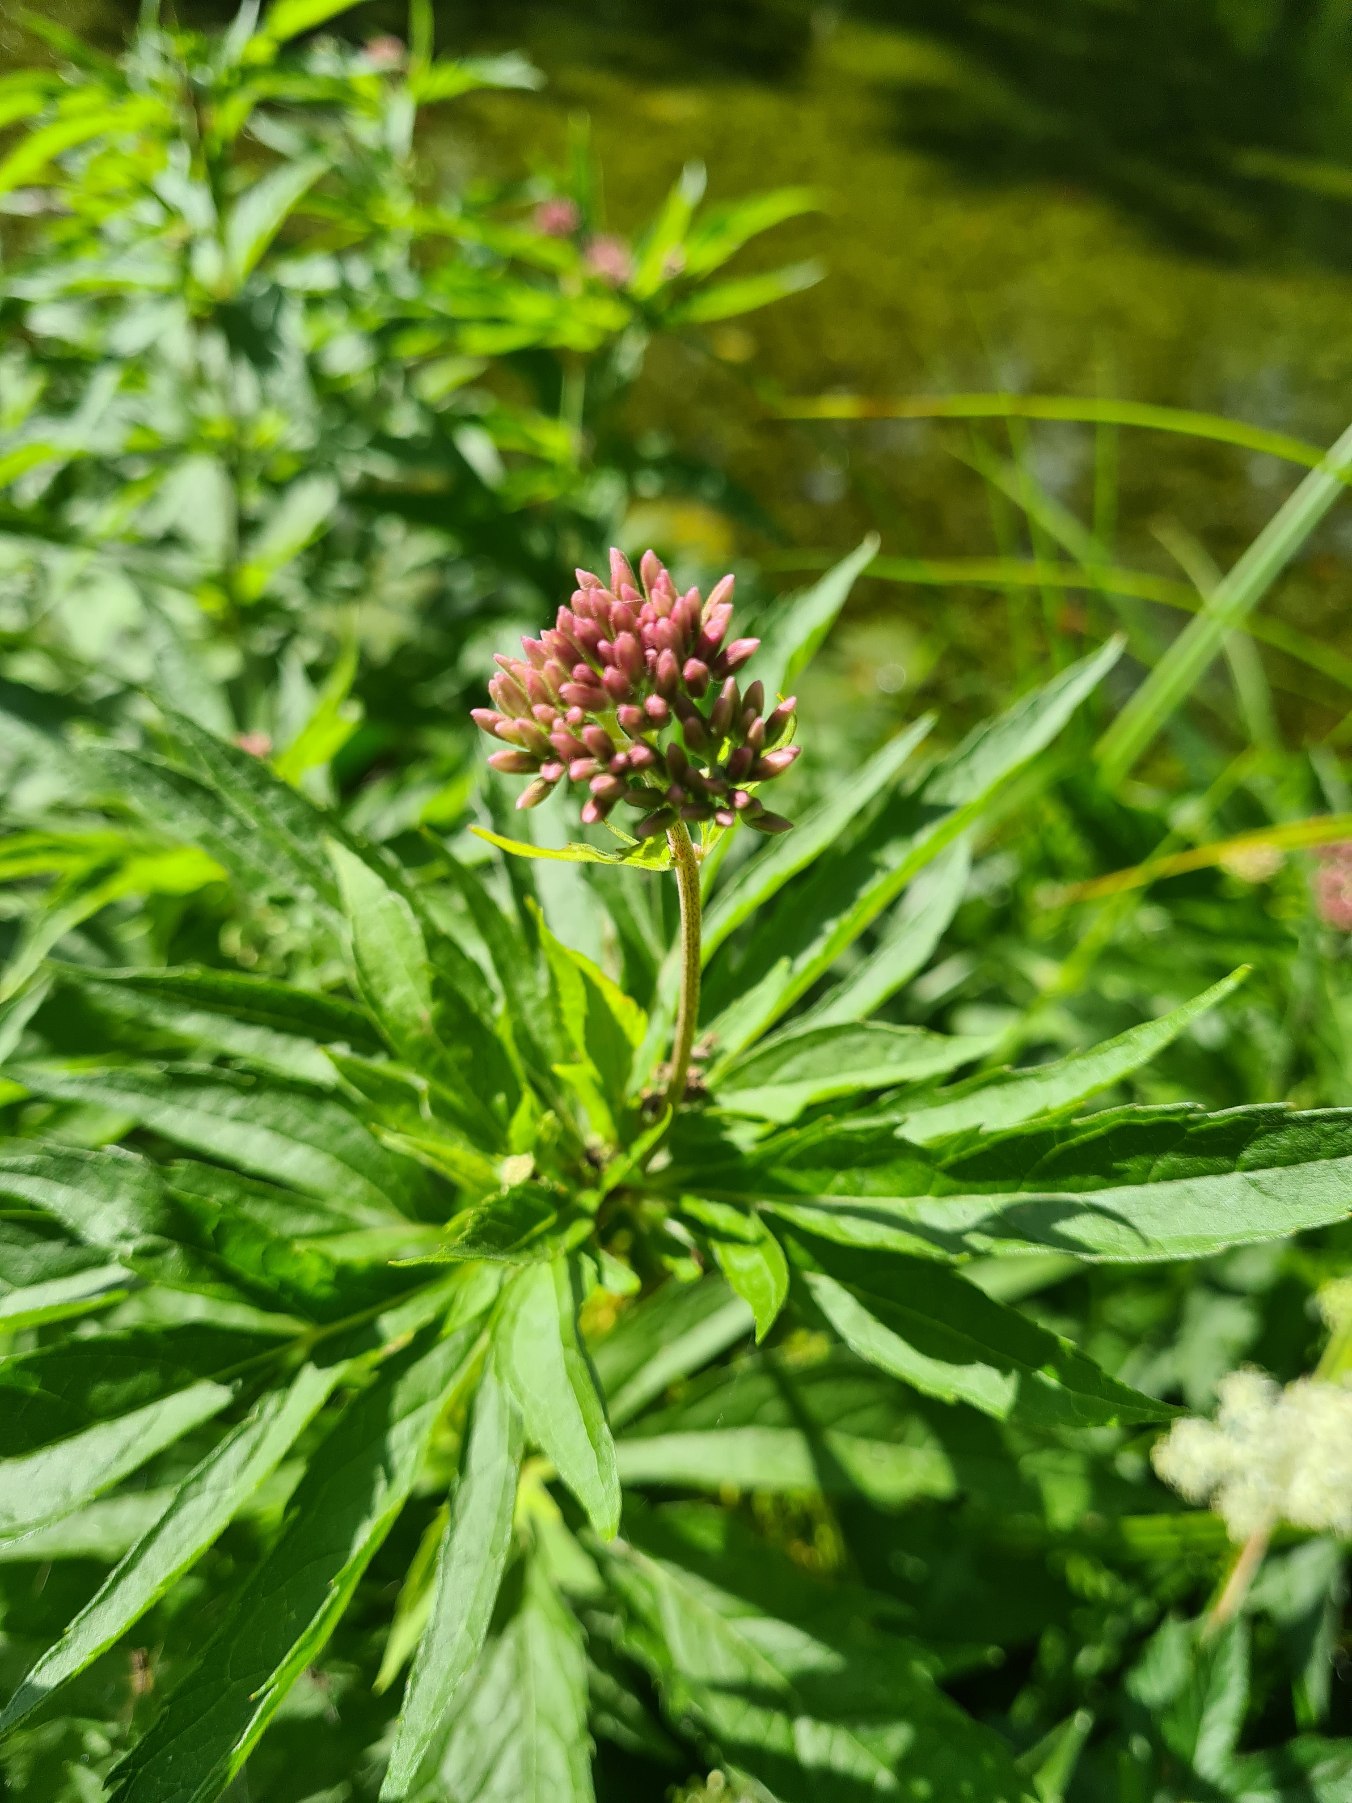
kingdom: Plantae
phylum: Tracheophyta
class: Magnoliopsida
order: Asterales
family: Asteraceae
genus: Eupatorium
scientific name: Eupatorium cannabinum
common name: Hjortetrøst
